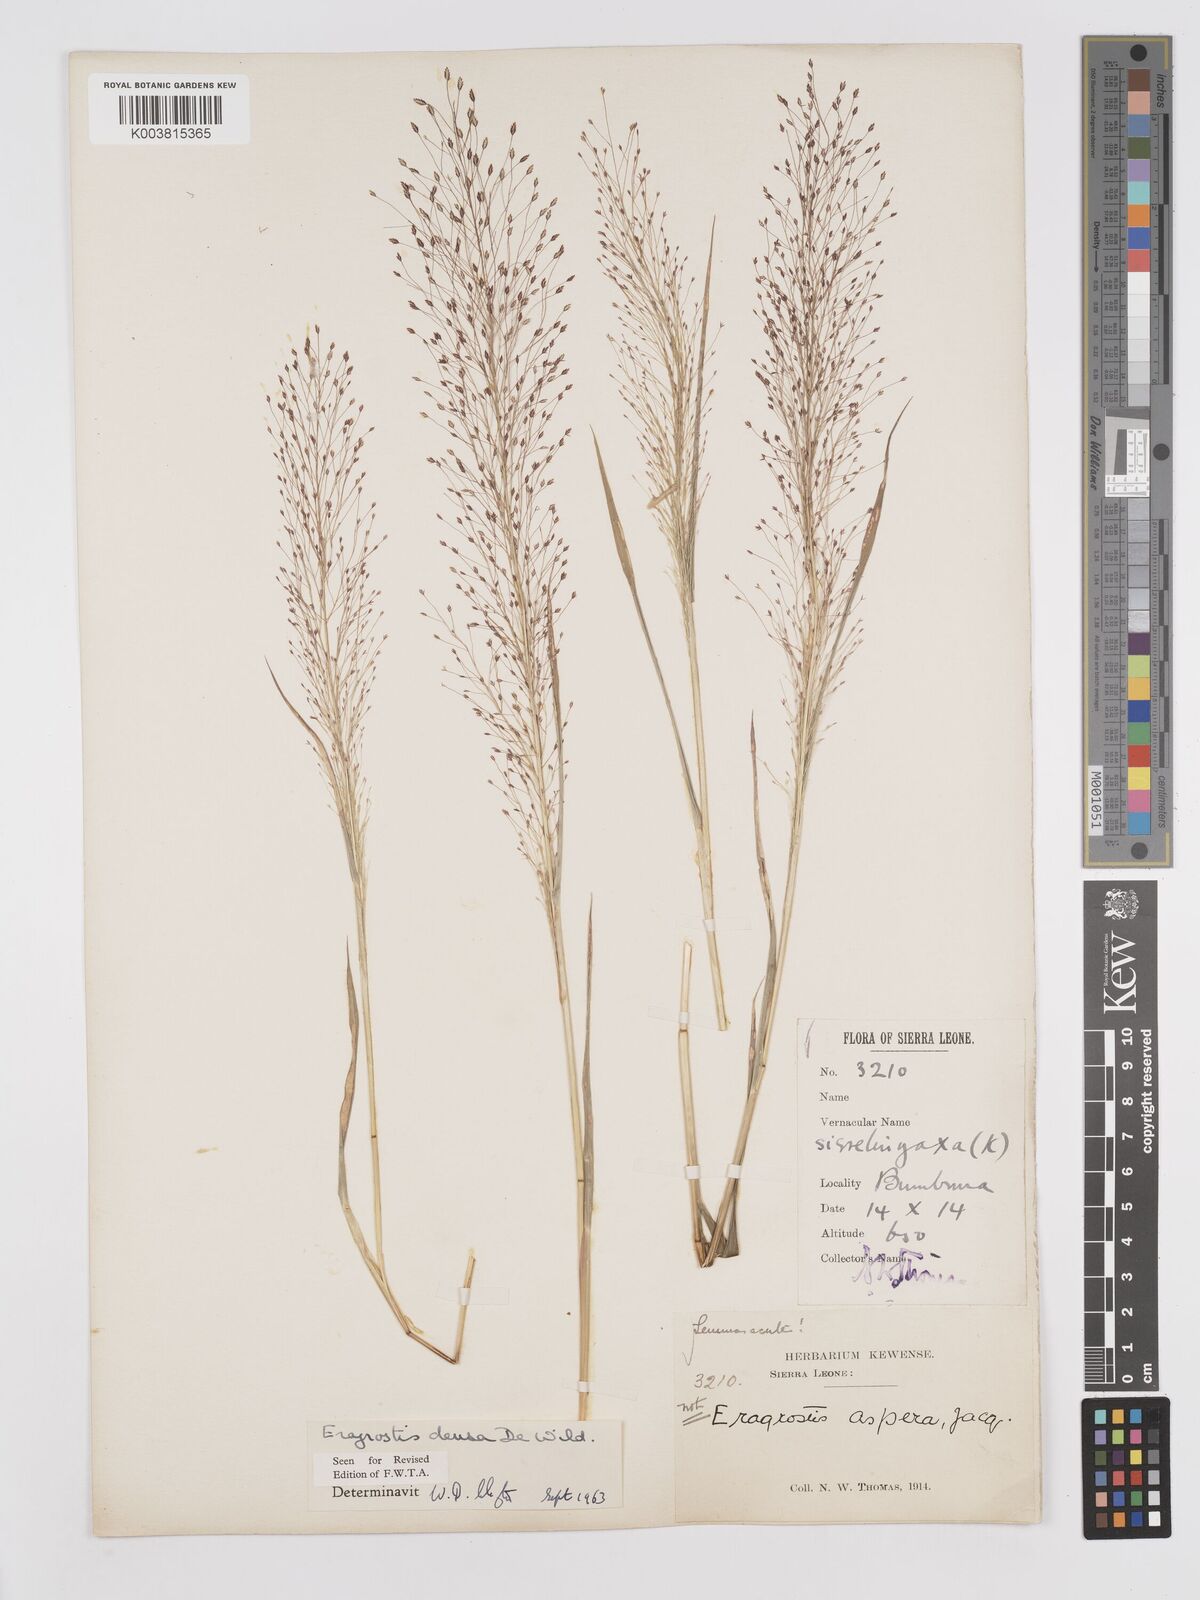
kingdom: Plantae
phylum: Tracheophyta
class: Liliopsida
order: Poales
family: Poaceae
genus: Eragrostis
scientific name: Eragrostis welwitschii
